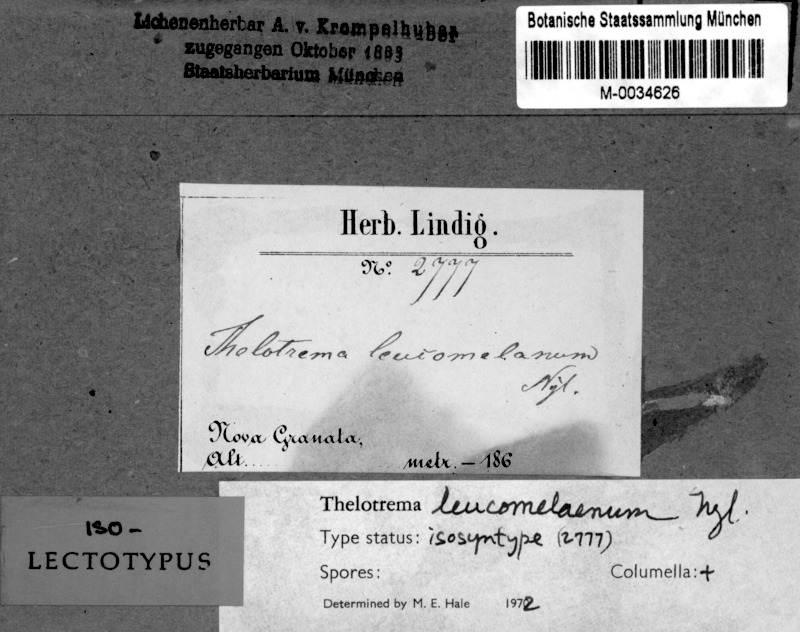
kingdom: Fungi
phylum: Ascomycota
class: Lecanoromycetes
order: Ostropales
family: Graphidaceae
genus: Thelotrema
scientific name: Thelotrema leucomelaenum
